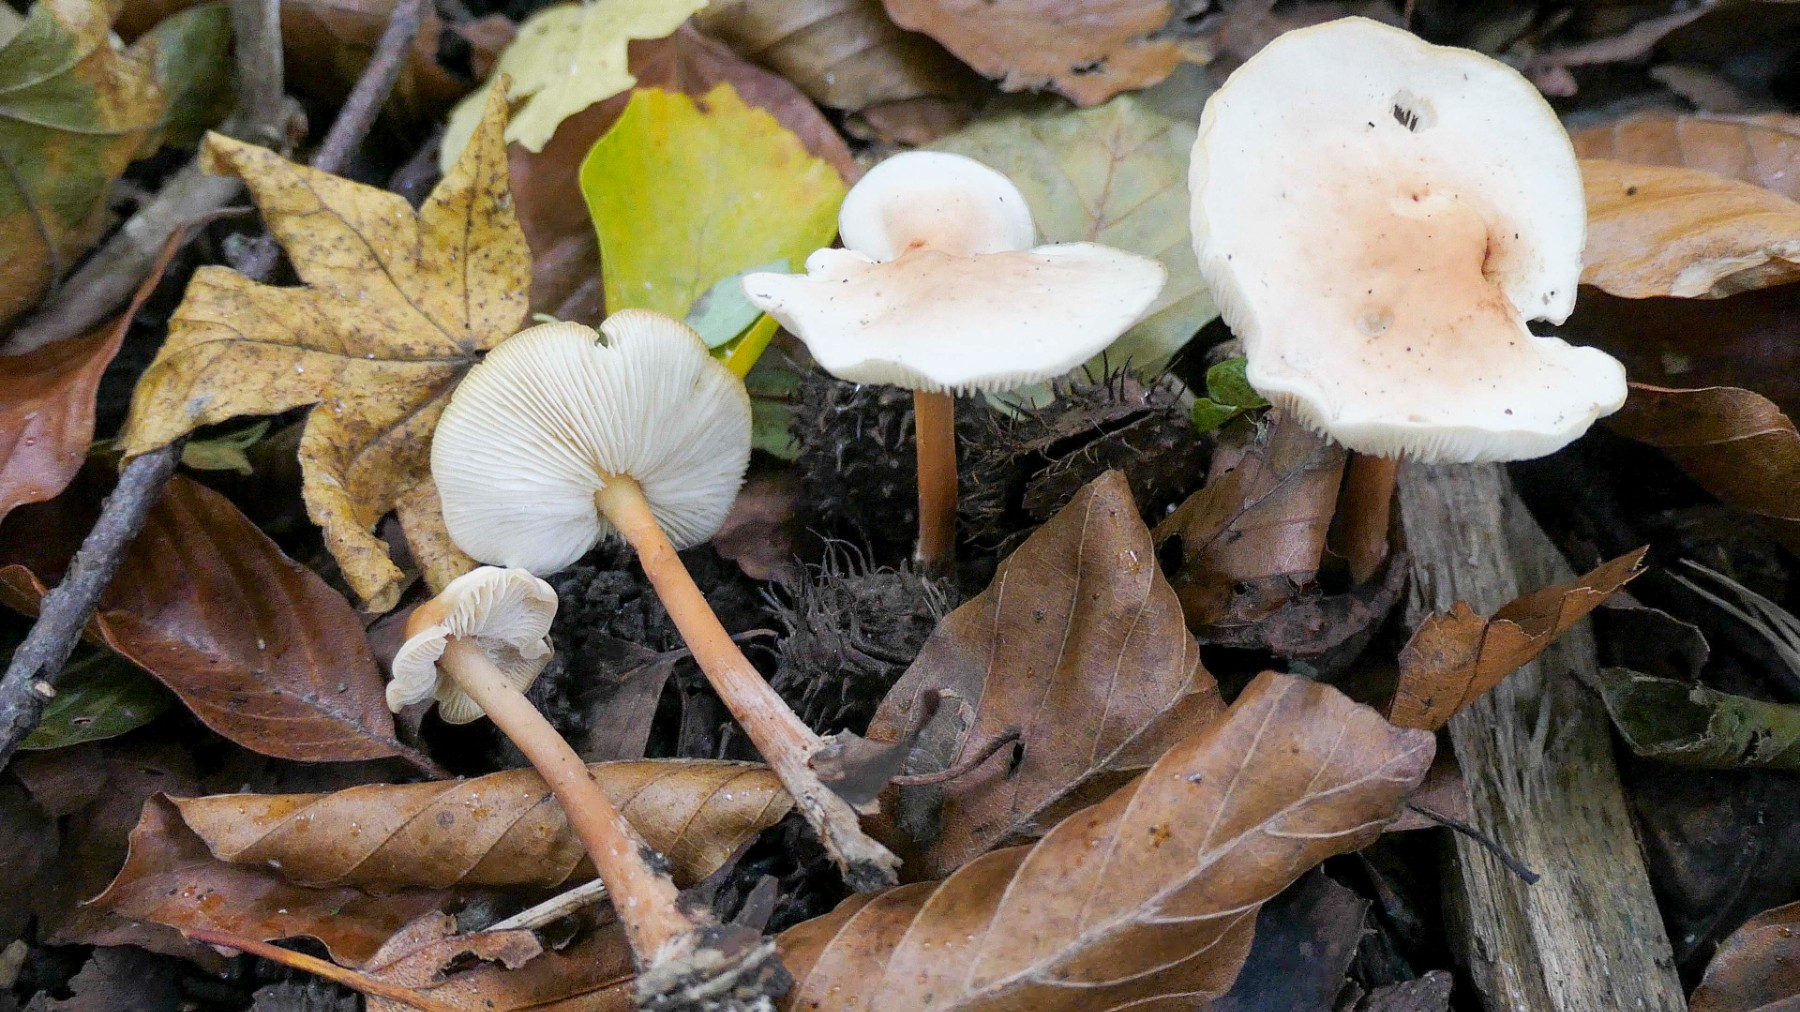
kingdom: Fungi
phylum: Basidiomycota
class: Agaricomycetes
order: Agaricales
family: Omphalotaceae
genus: Gymnopus
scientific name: Gymnopus
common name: fladhat
